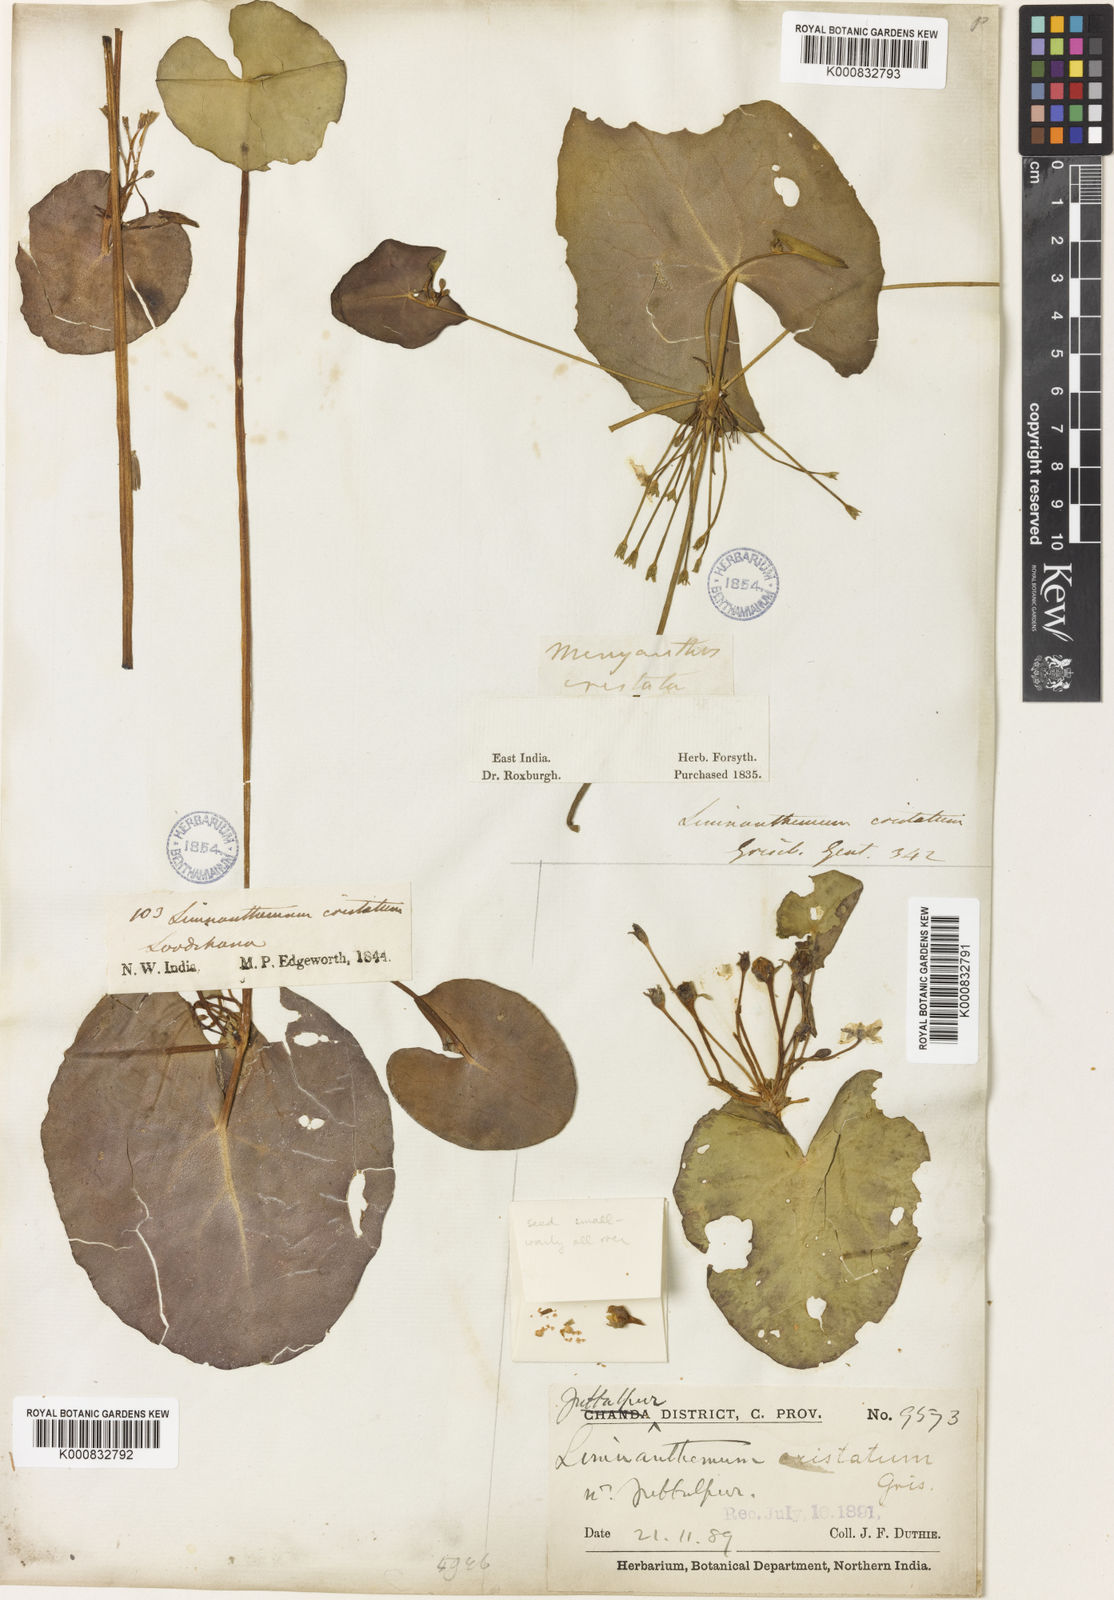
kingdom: Plantae
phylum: Tracheophyta
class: Magnoliopsida
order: Asterales
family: Menyanthaceae
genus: Nymphoides
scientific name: Nymphoides hydrophylla
